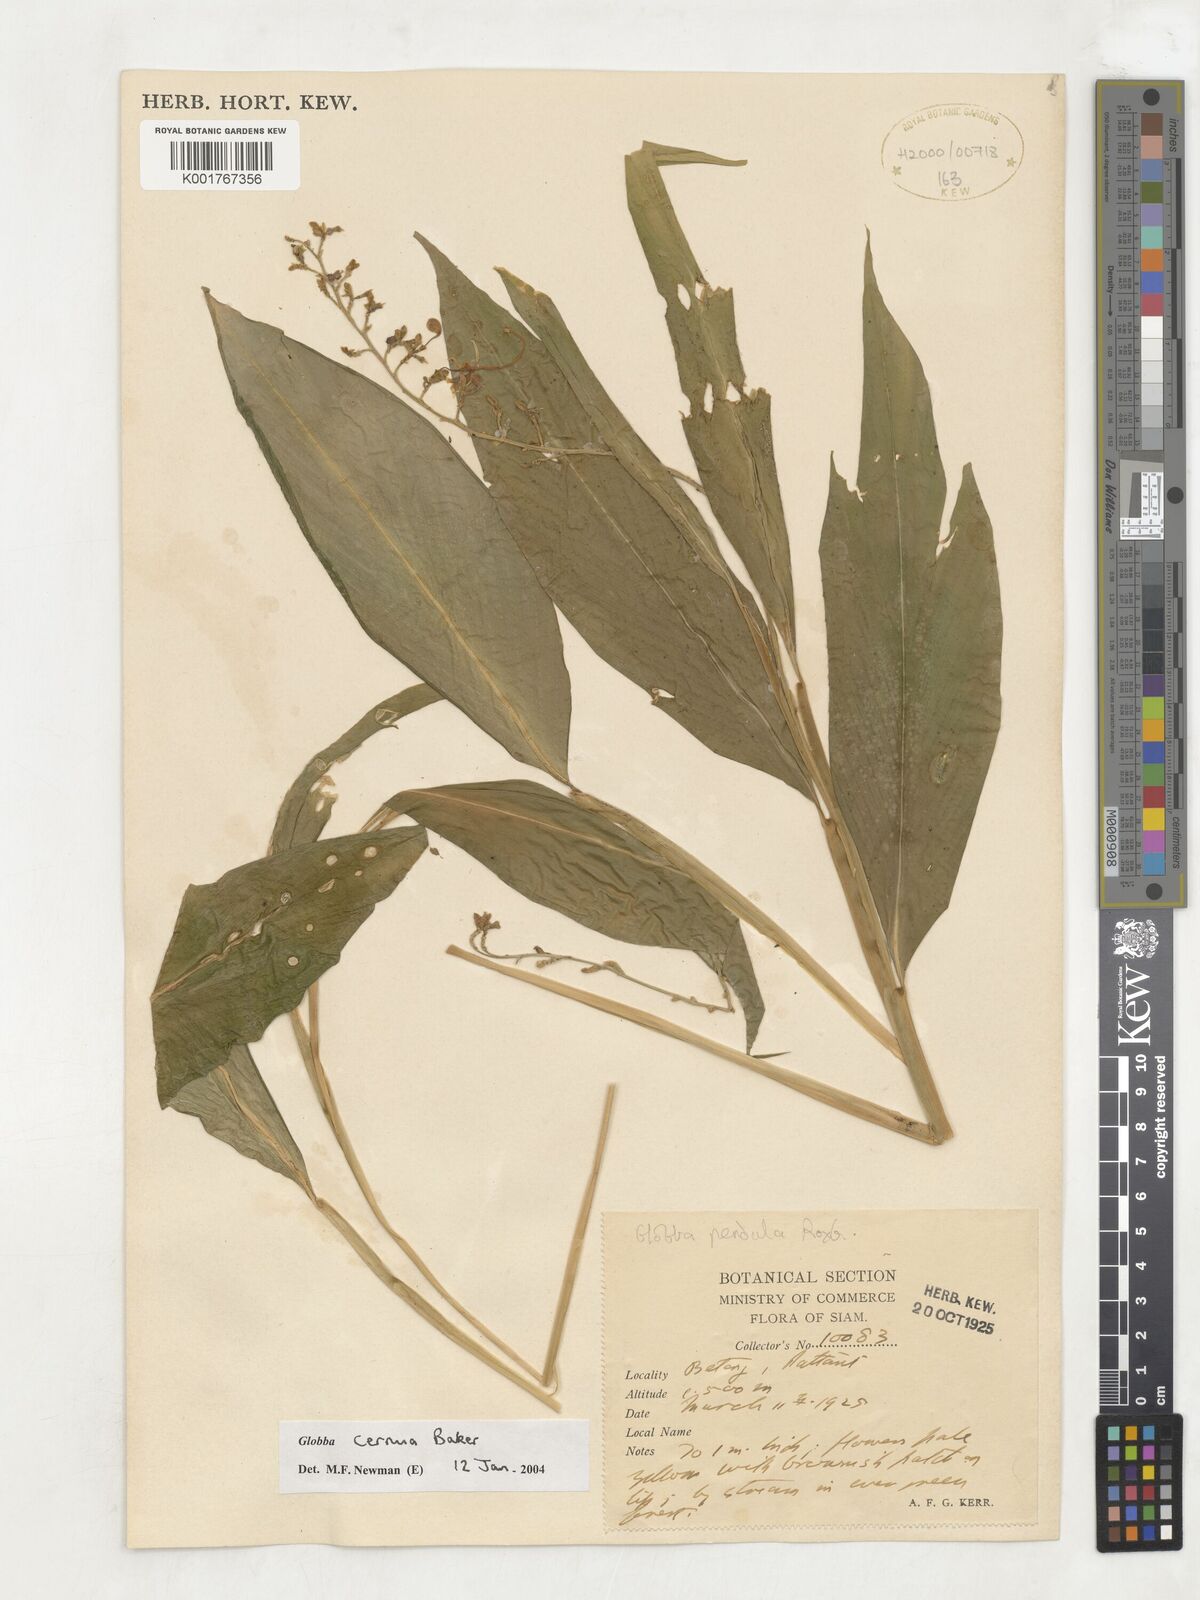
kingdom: Plantae
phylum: Tracheophyta
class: Liliopsida
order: Zingiberales
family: Zingiberaceae
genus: Globba
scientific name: Globba cernua
